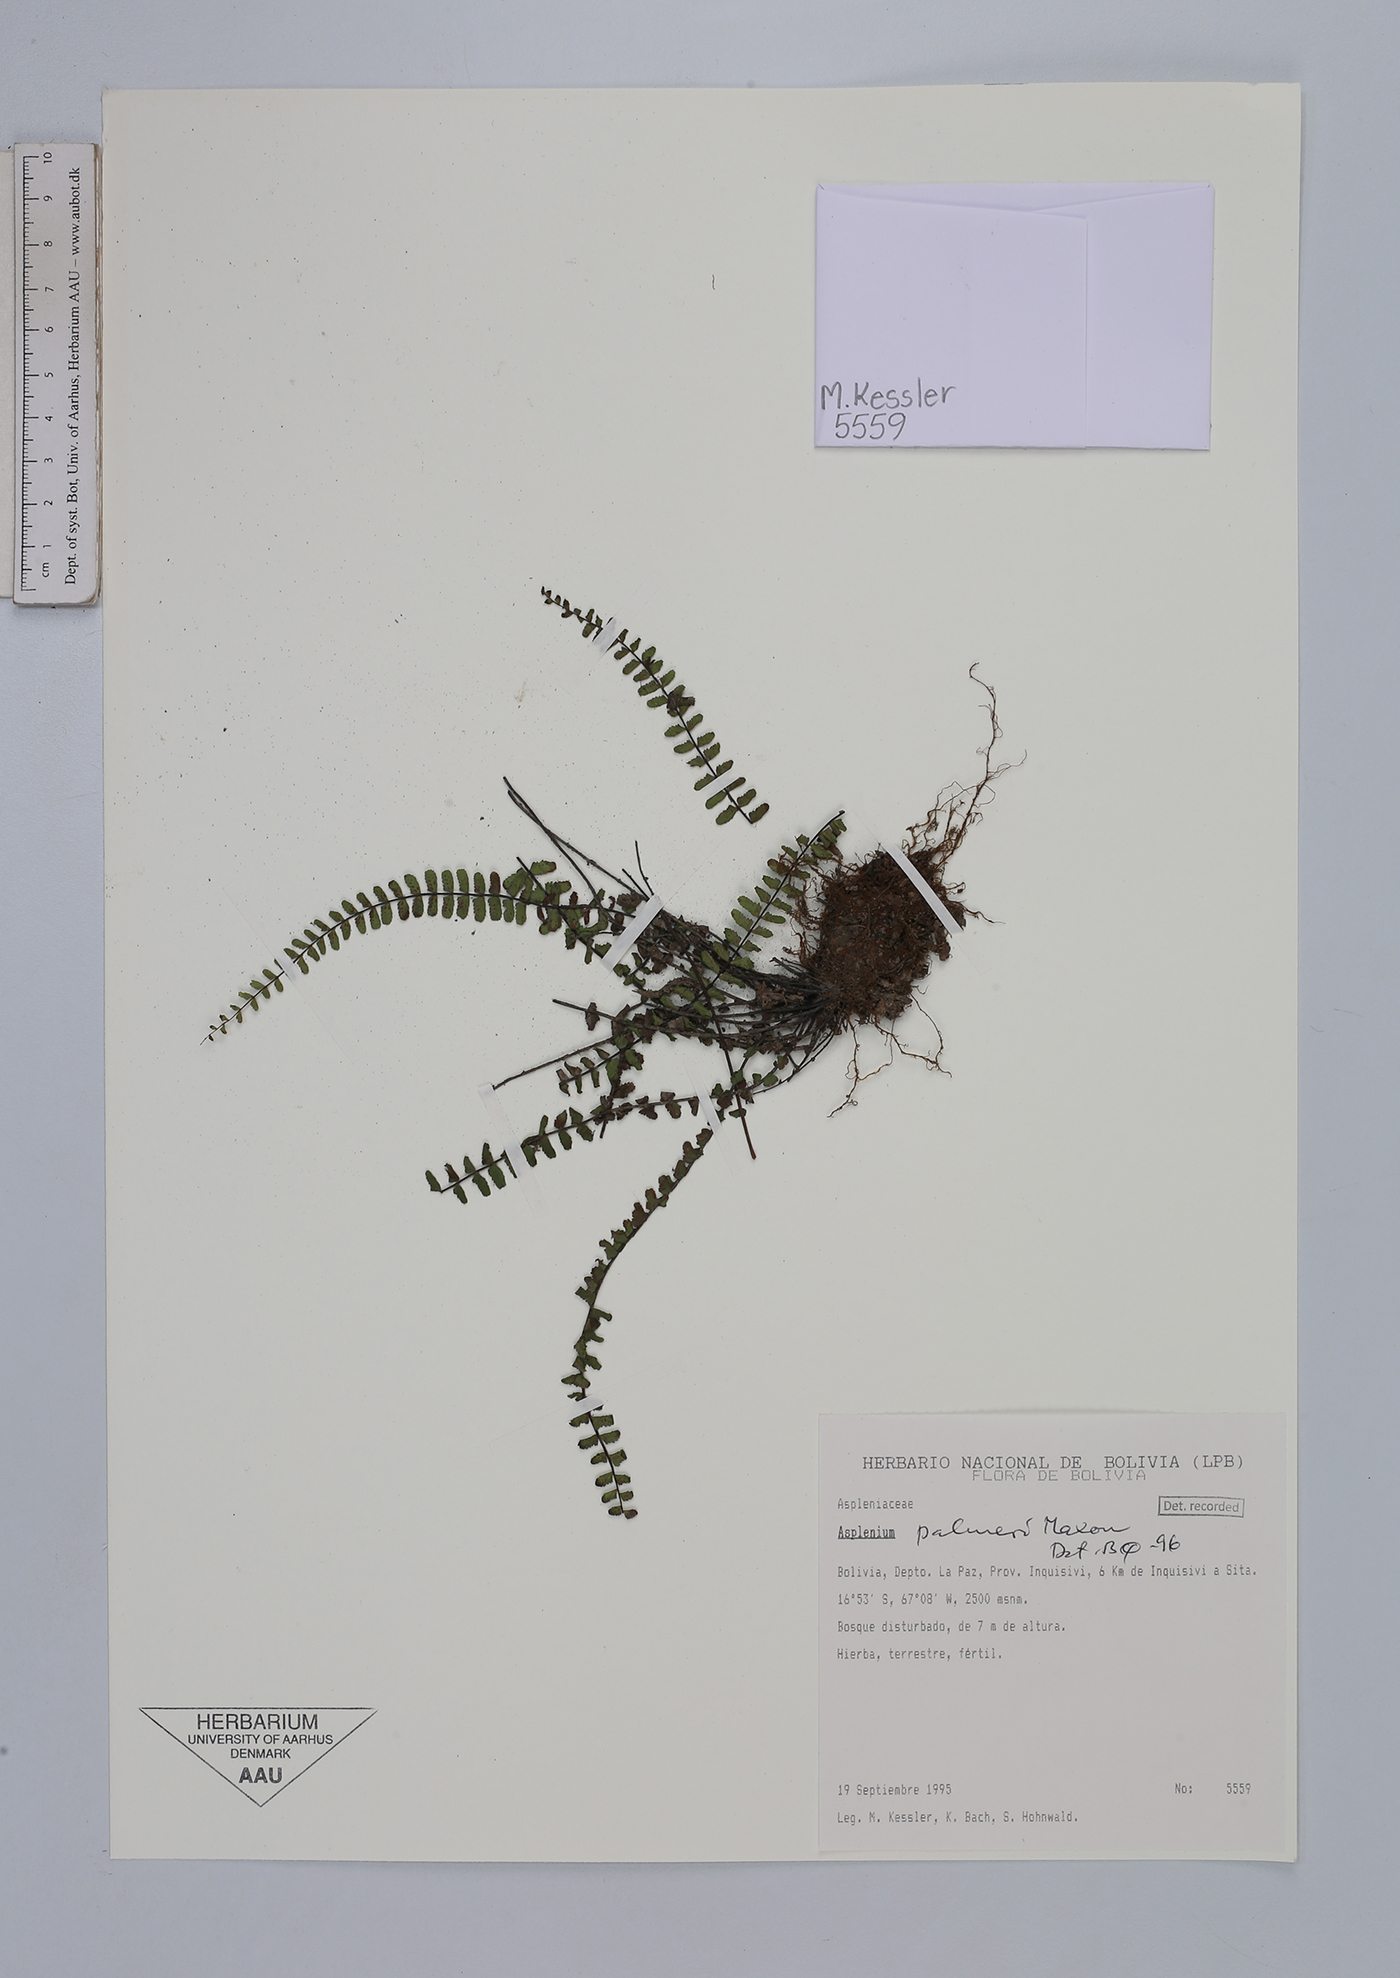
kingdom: Plantae
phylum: Tracheophyta
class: Polypodiopsida
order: Polypodiales
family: Aspleniaceae
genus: Asplenium
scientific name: Asplenium palmeri
